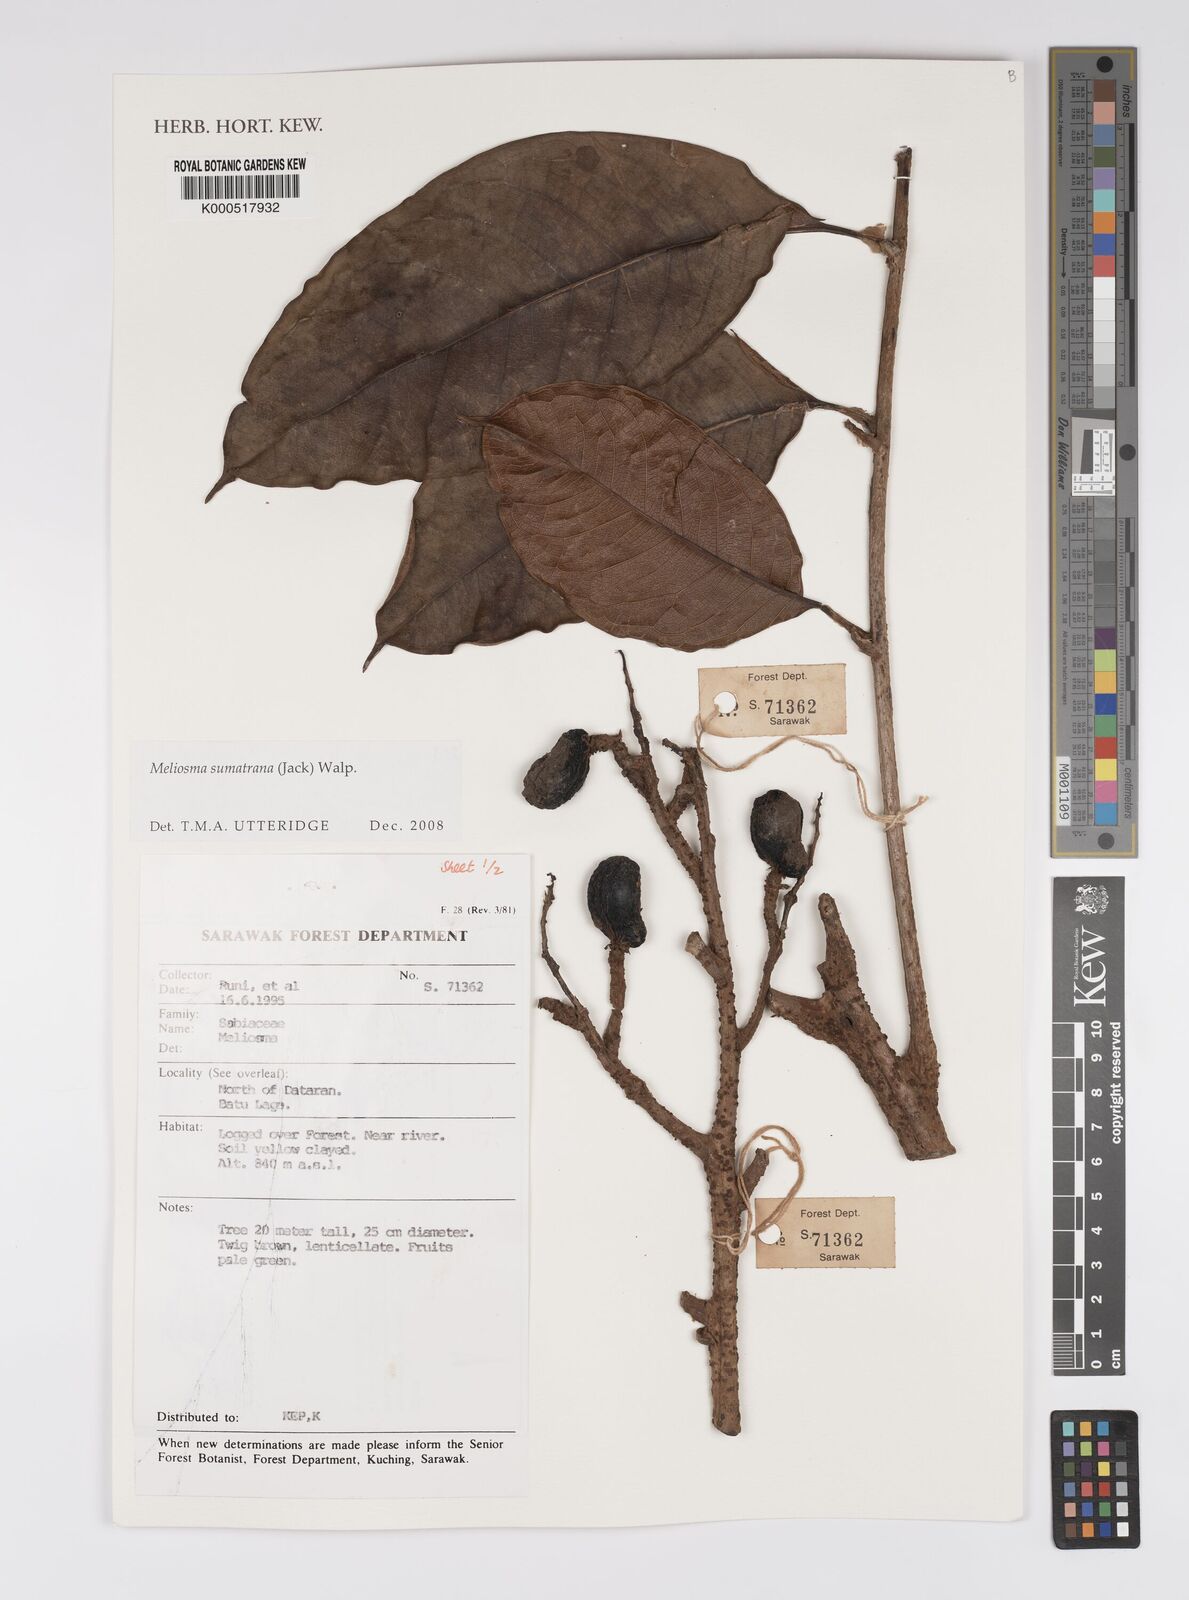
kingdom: Plantae
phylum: Tracheophyta
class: Magnoliopsida
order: Proteales
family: Sabiaceae
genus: Meliosma
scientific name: Meliosma sumatrana
